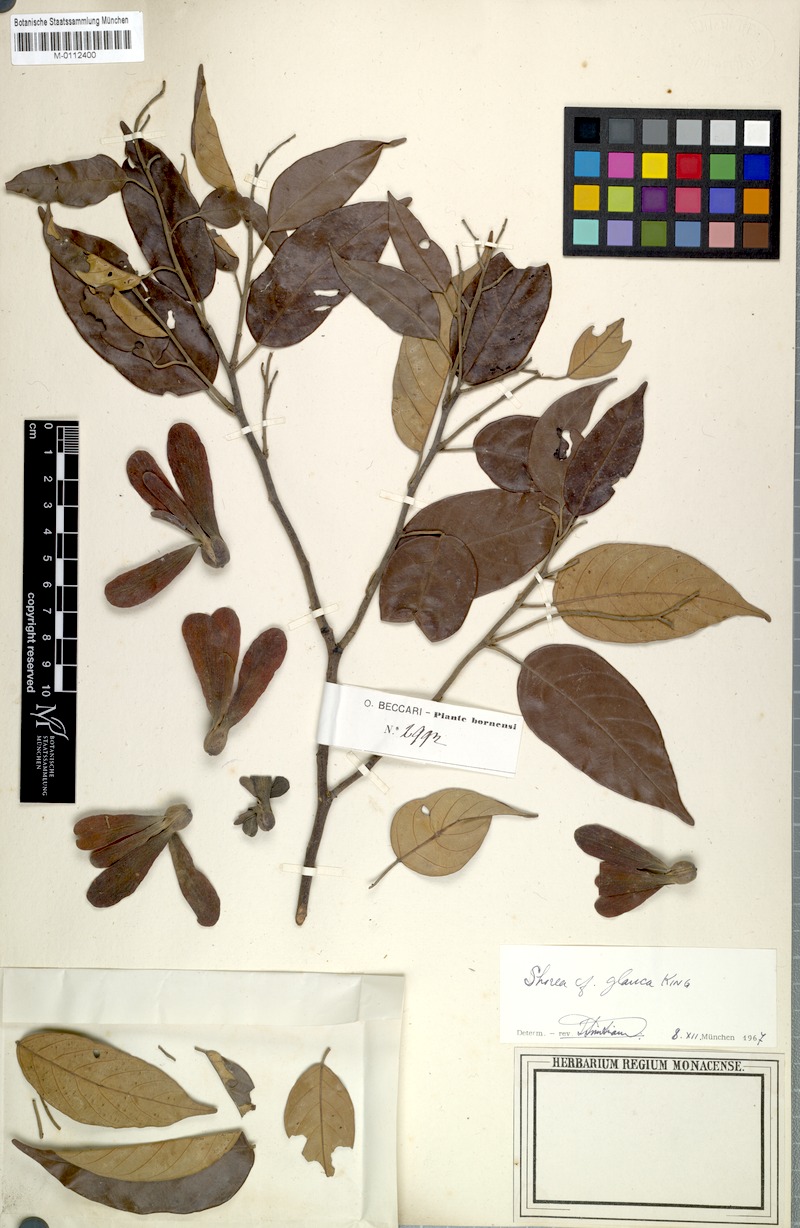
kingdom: Plantae
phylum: Tracheophyta
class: Magnoliopsida
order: Malvales
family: Dipterocarpaceae
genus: Shorea
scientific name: Shorea glauca
